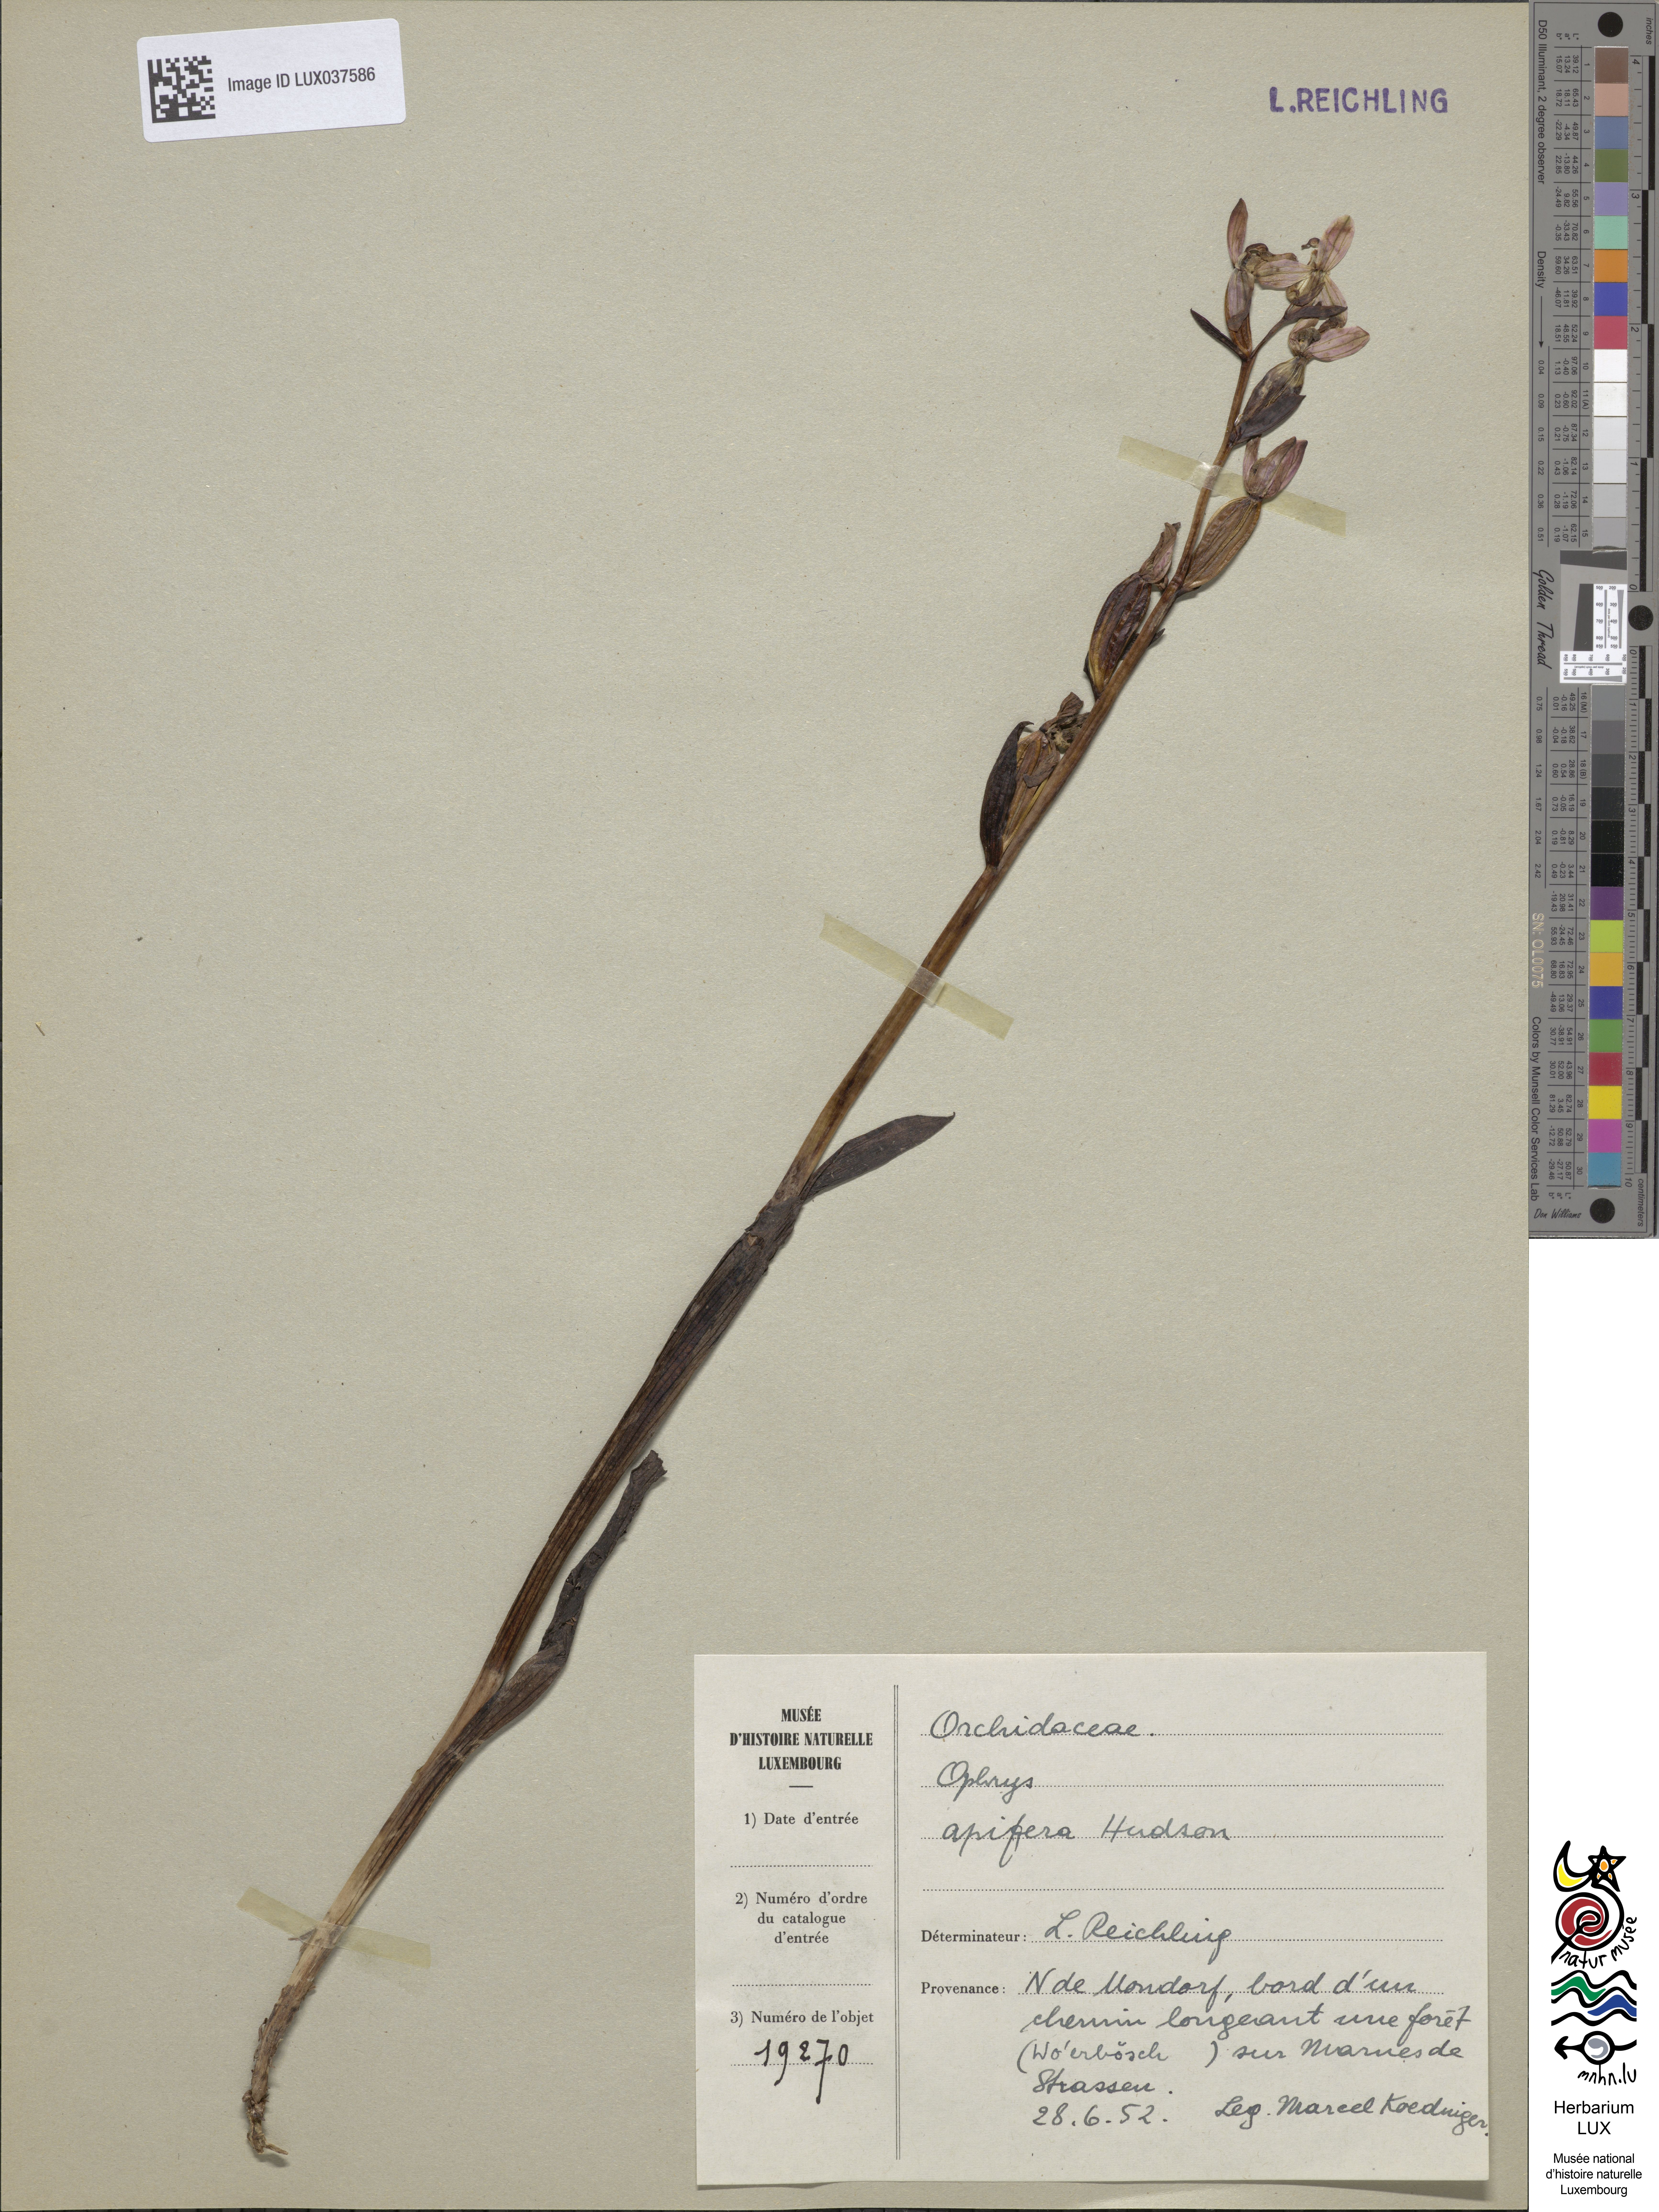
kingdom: Plantae
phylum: Tracheophyta
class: Liliopsida
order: Asparagales
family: Orchidaceae
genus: Ophrys
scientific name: Ophrys apifera
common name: Bee orchid
